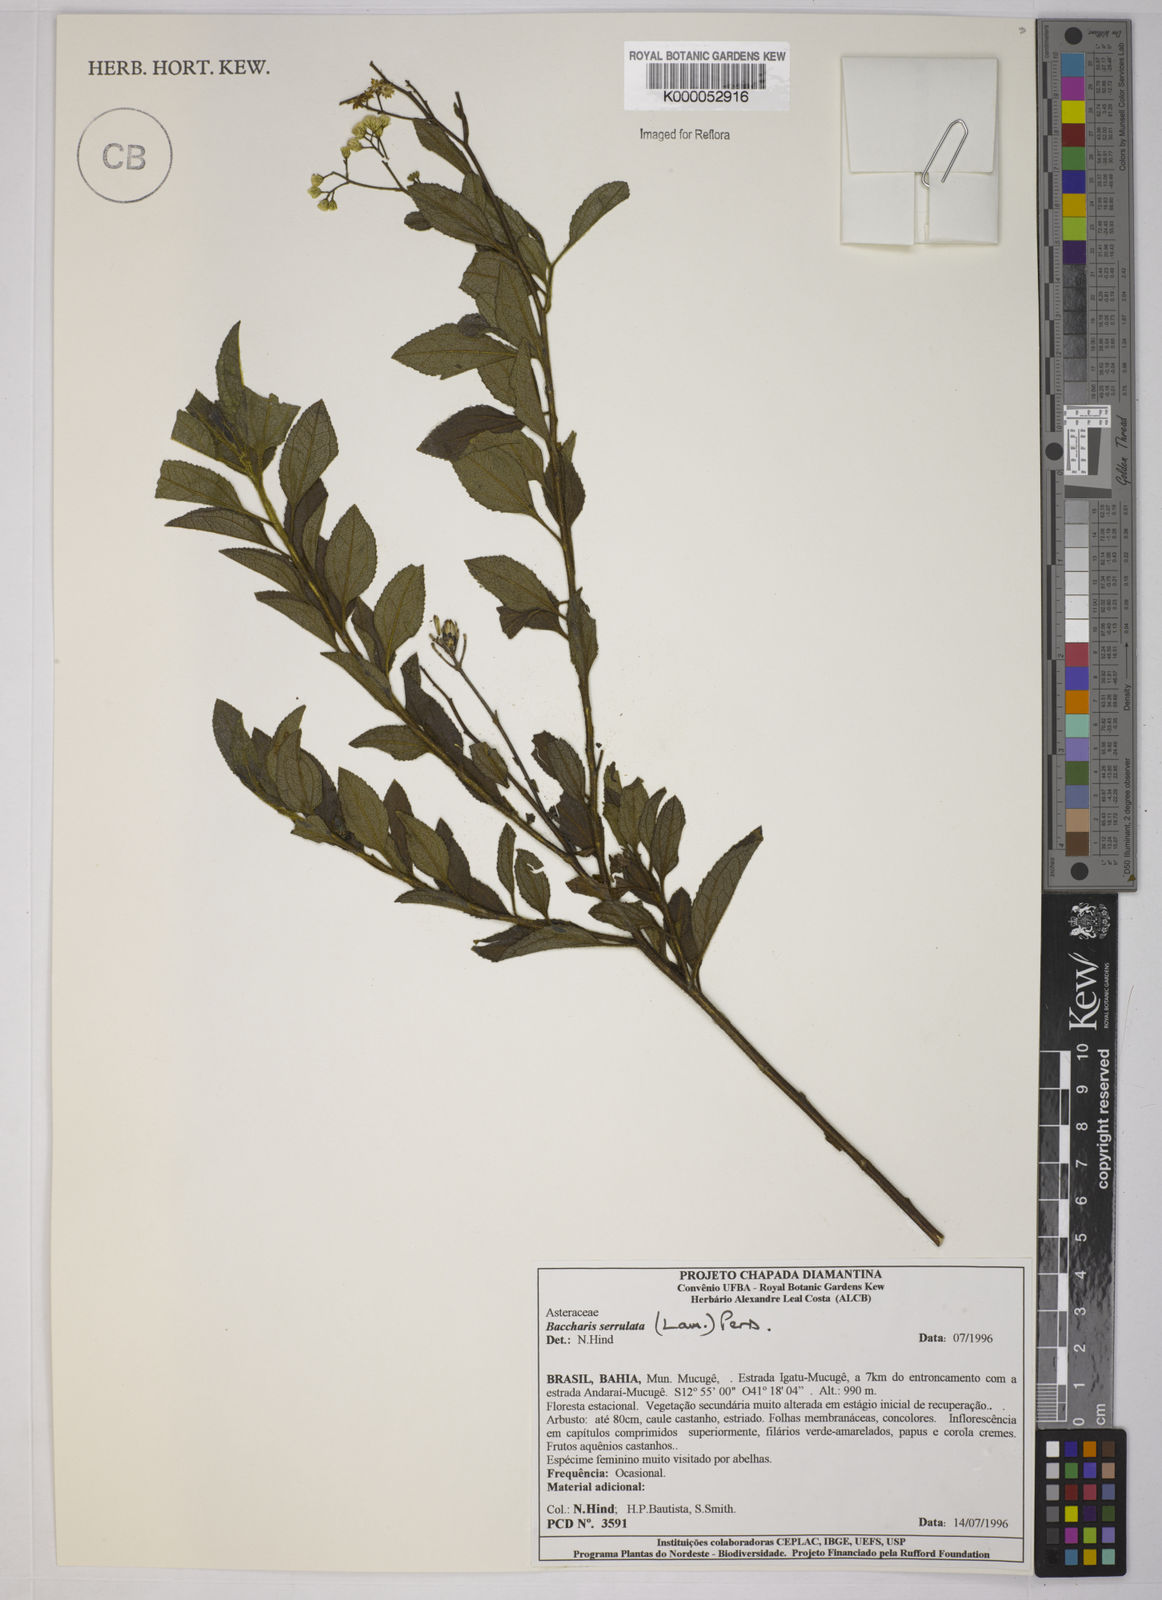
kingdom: Plantae
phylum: Tracheophyta
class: Magnoliopsida
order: Asterales
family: Asteraceae
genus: Baccharis
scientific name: Baccharis serrulata
